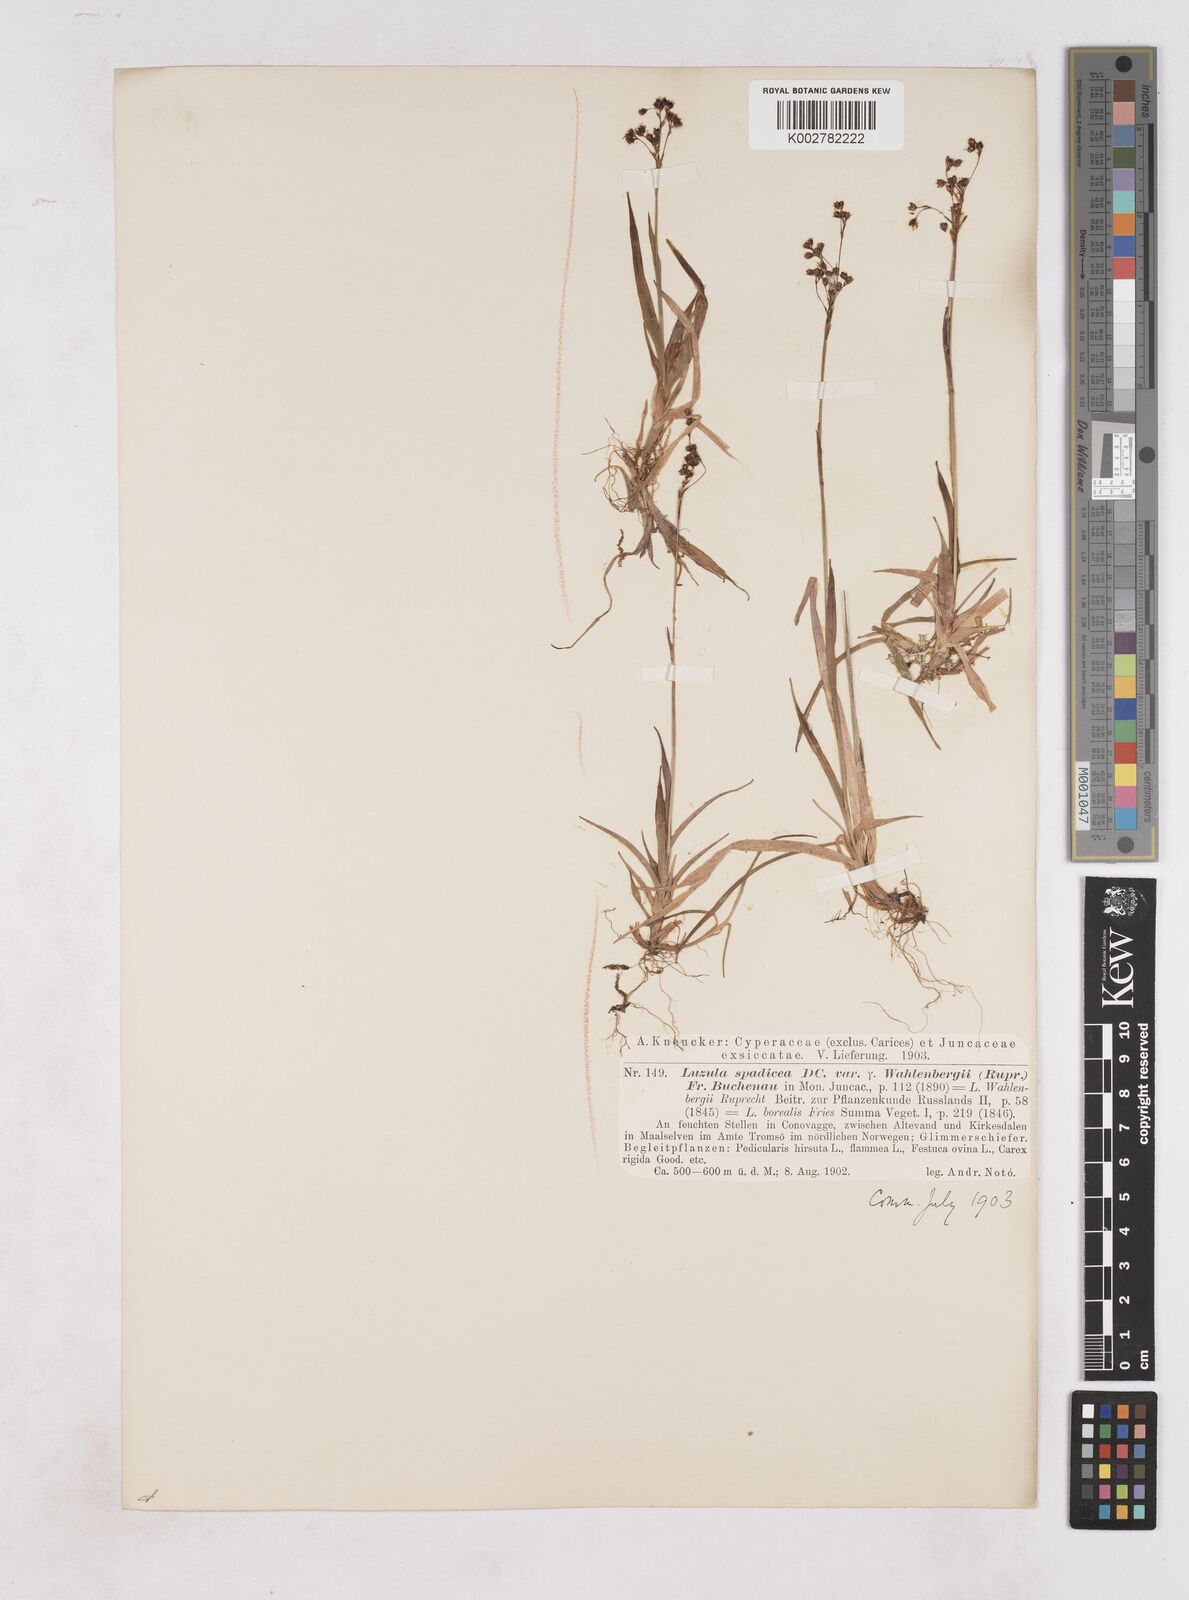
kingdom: Plantae
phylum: Tracheophyta
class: Liliopsida
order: Poales
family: Juncaceae
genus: Luzula
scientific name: Luzula alpinopilosa
